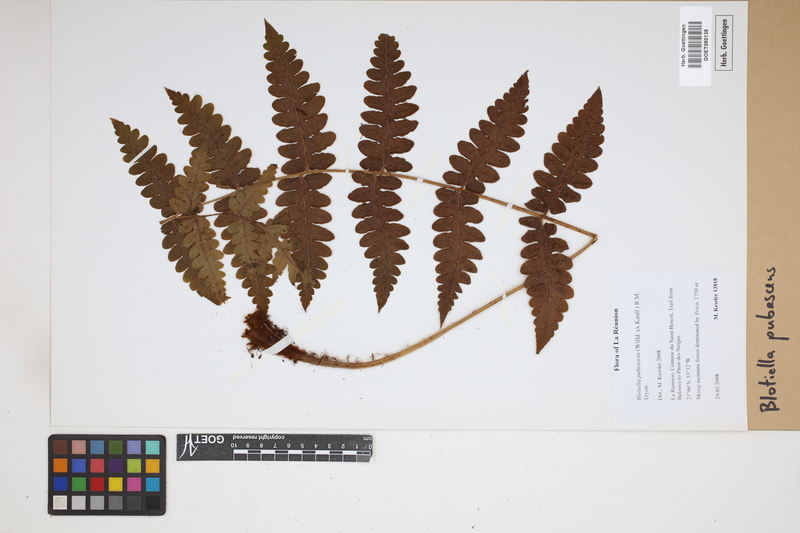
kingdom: Plantae
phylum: Tracheophyta
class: Polypodiopsida
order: Polypodiales
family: Dennstaedtiaceae
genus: Blotiella
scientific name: Blotiella pubescens
